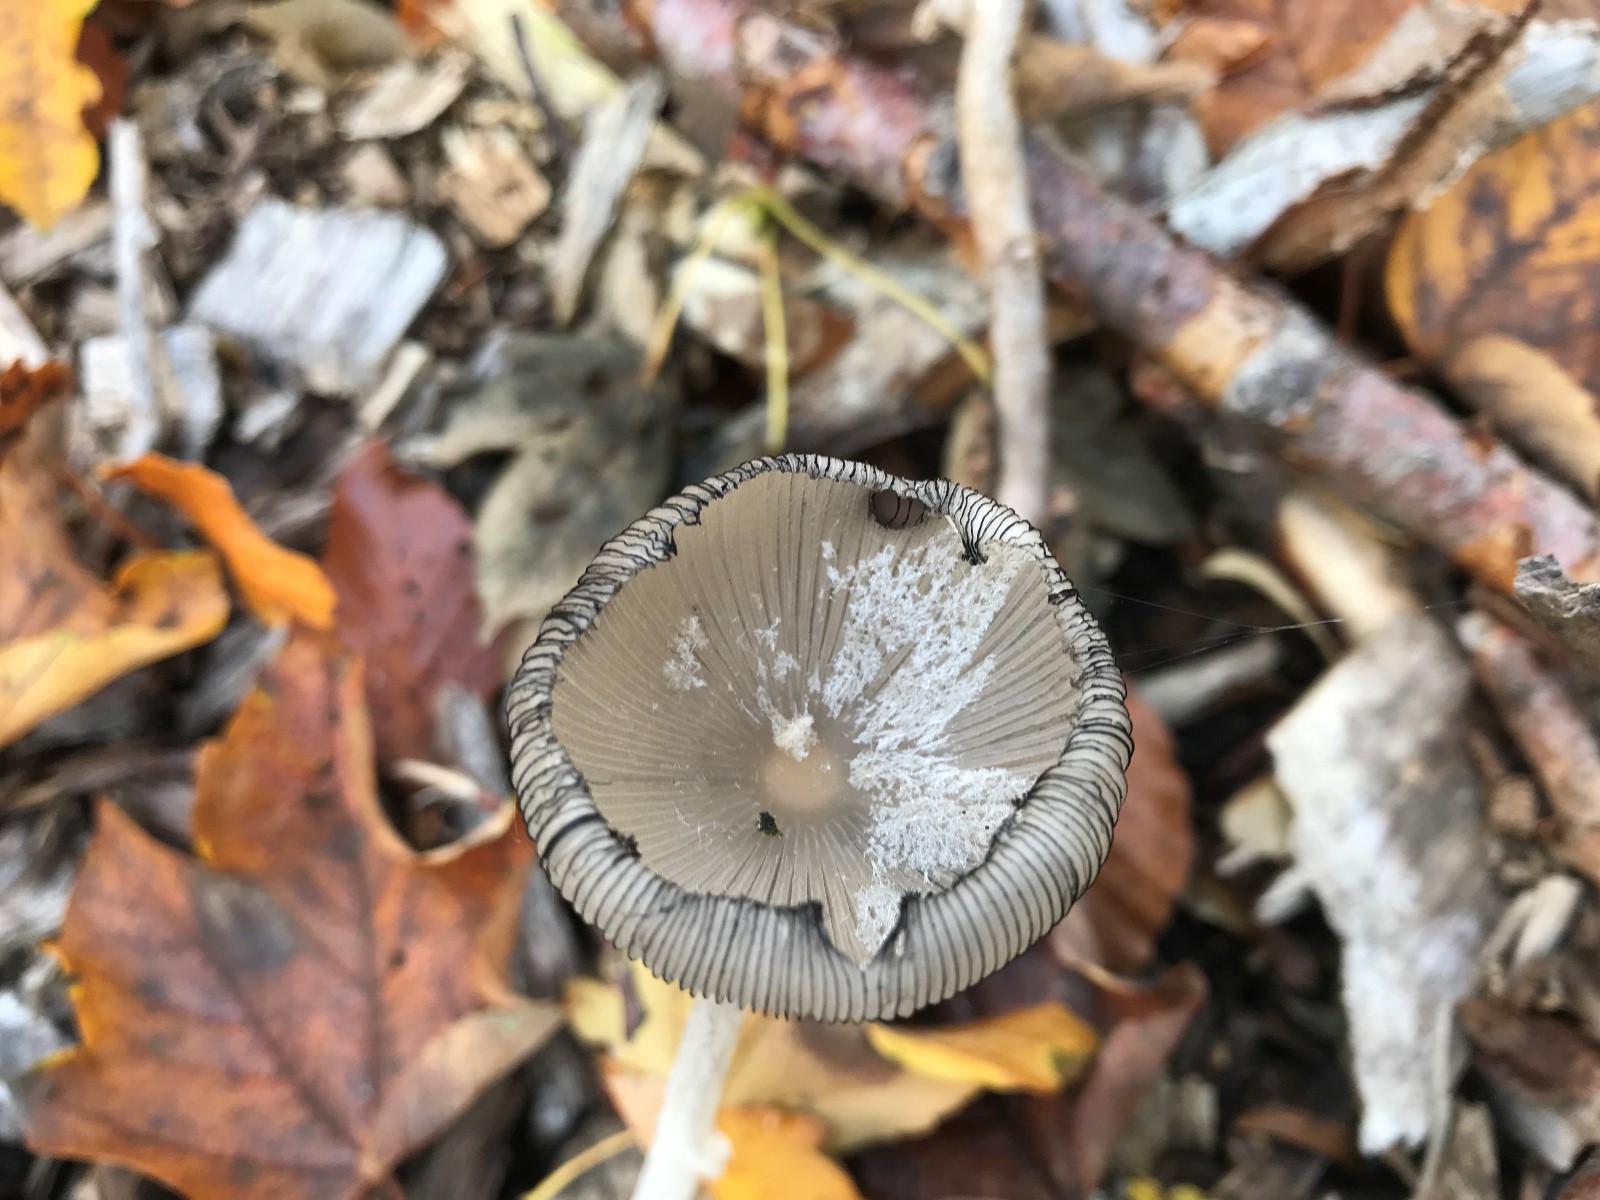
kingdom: Fungi
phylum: Basidiomycota
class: Agaricomycetes
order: Agaricales
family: Psathyrellaceae
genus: Coprinopsis
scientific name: Coprinopsis lagopus
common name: dunstokket blækhat
